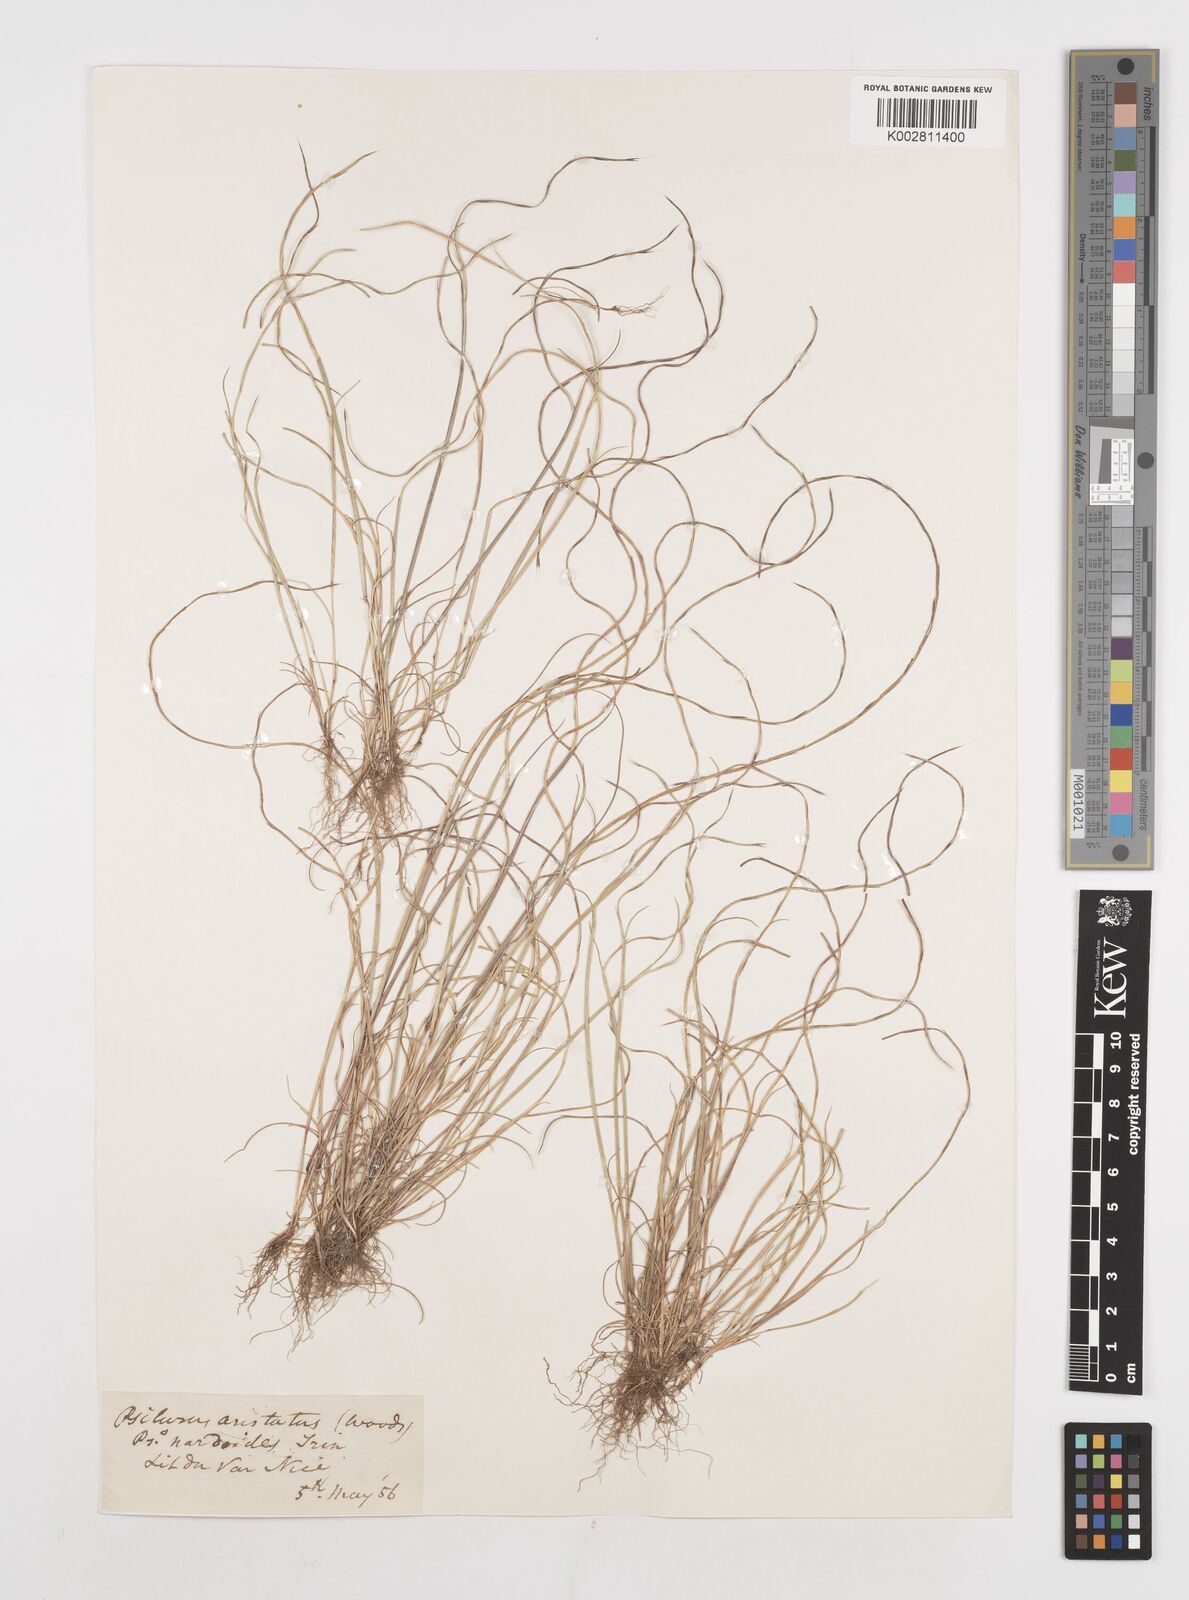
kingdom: Plantae
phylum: Tracheophyta
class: Liliopsida
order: Poales
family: Poaceae
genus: Festuca
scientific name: Festuca incurva
